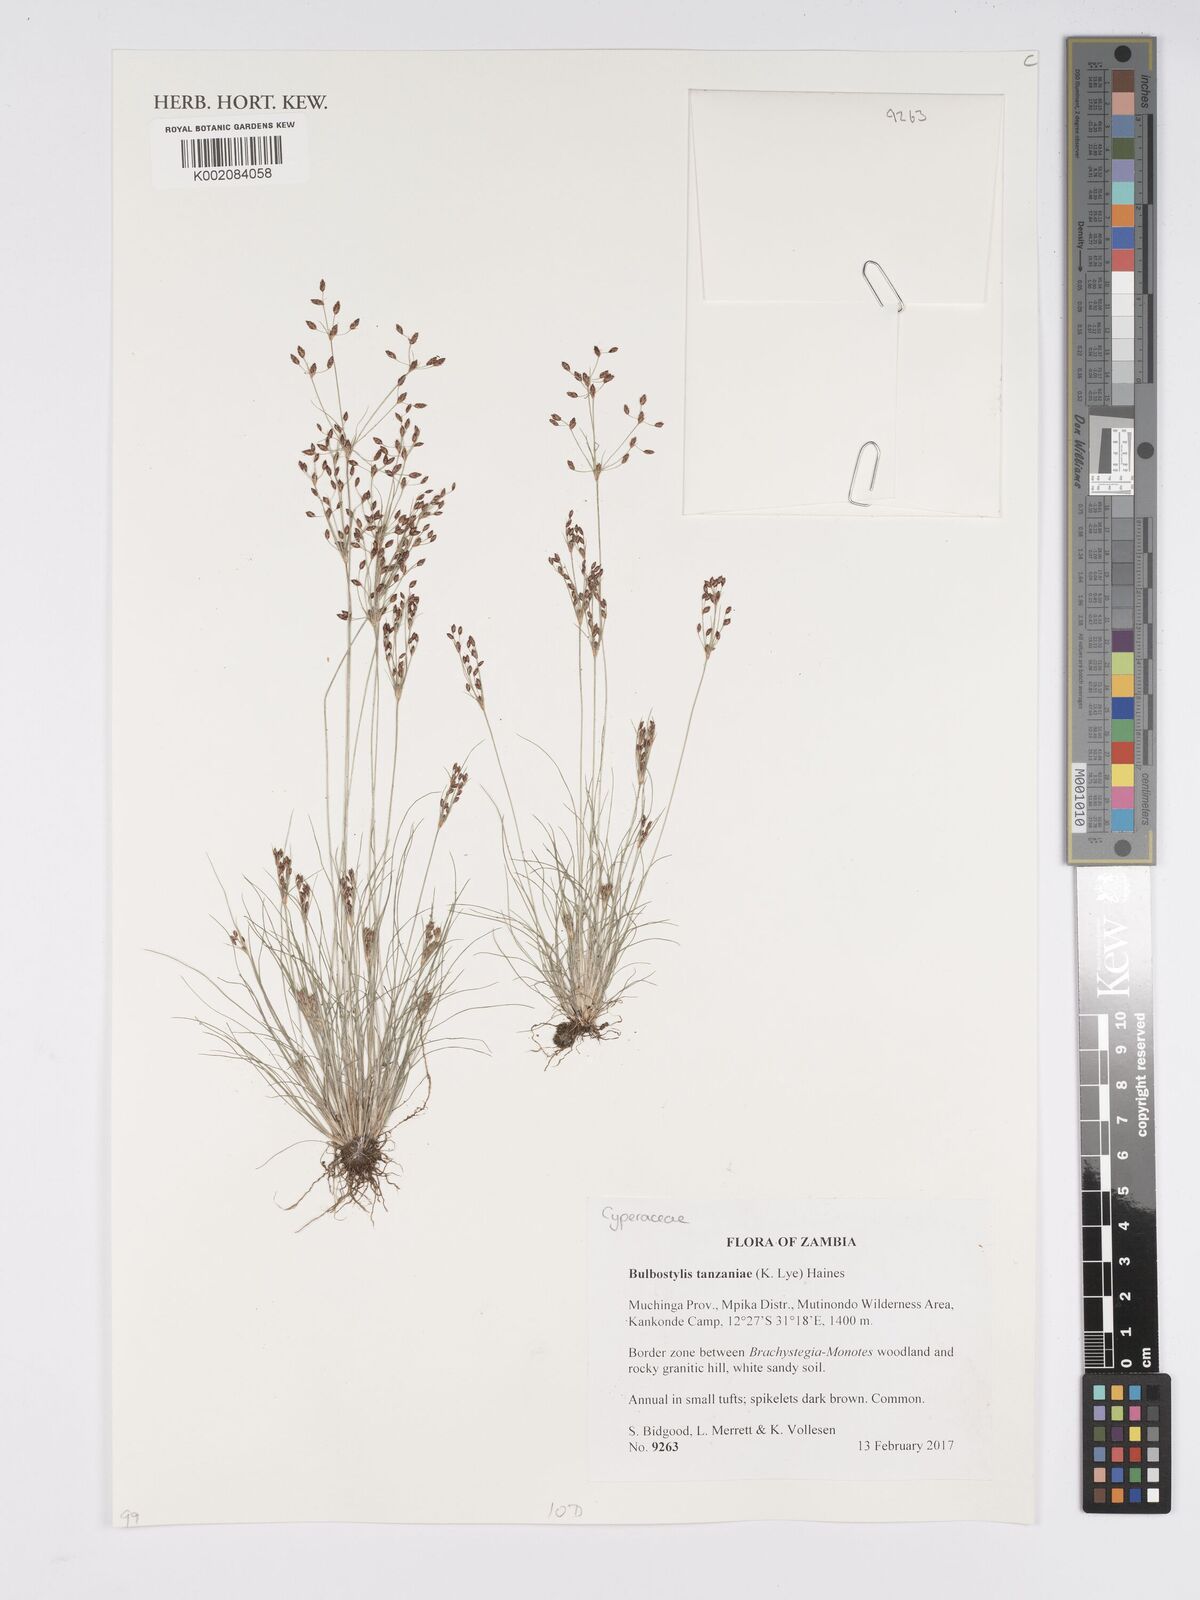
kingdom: Plantae
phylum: Tracheophyta
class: Liliopsida
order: Poales
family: Cyperaceae
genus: Bulbostylis
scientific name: Bulbostylis tanzaniae
